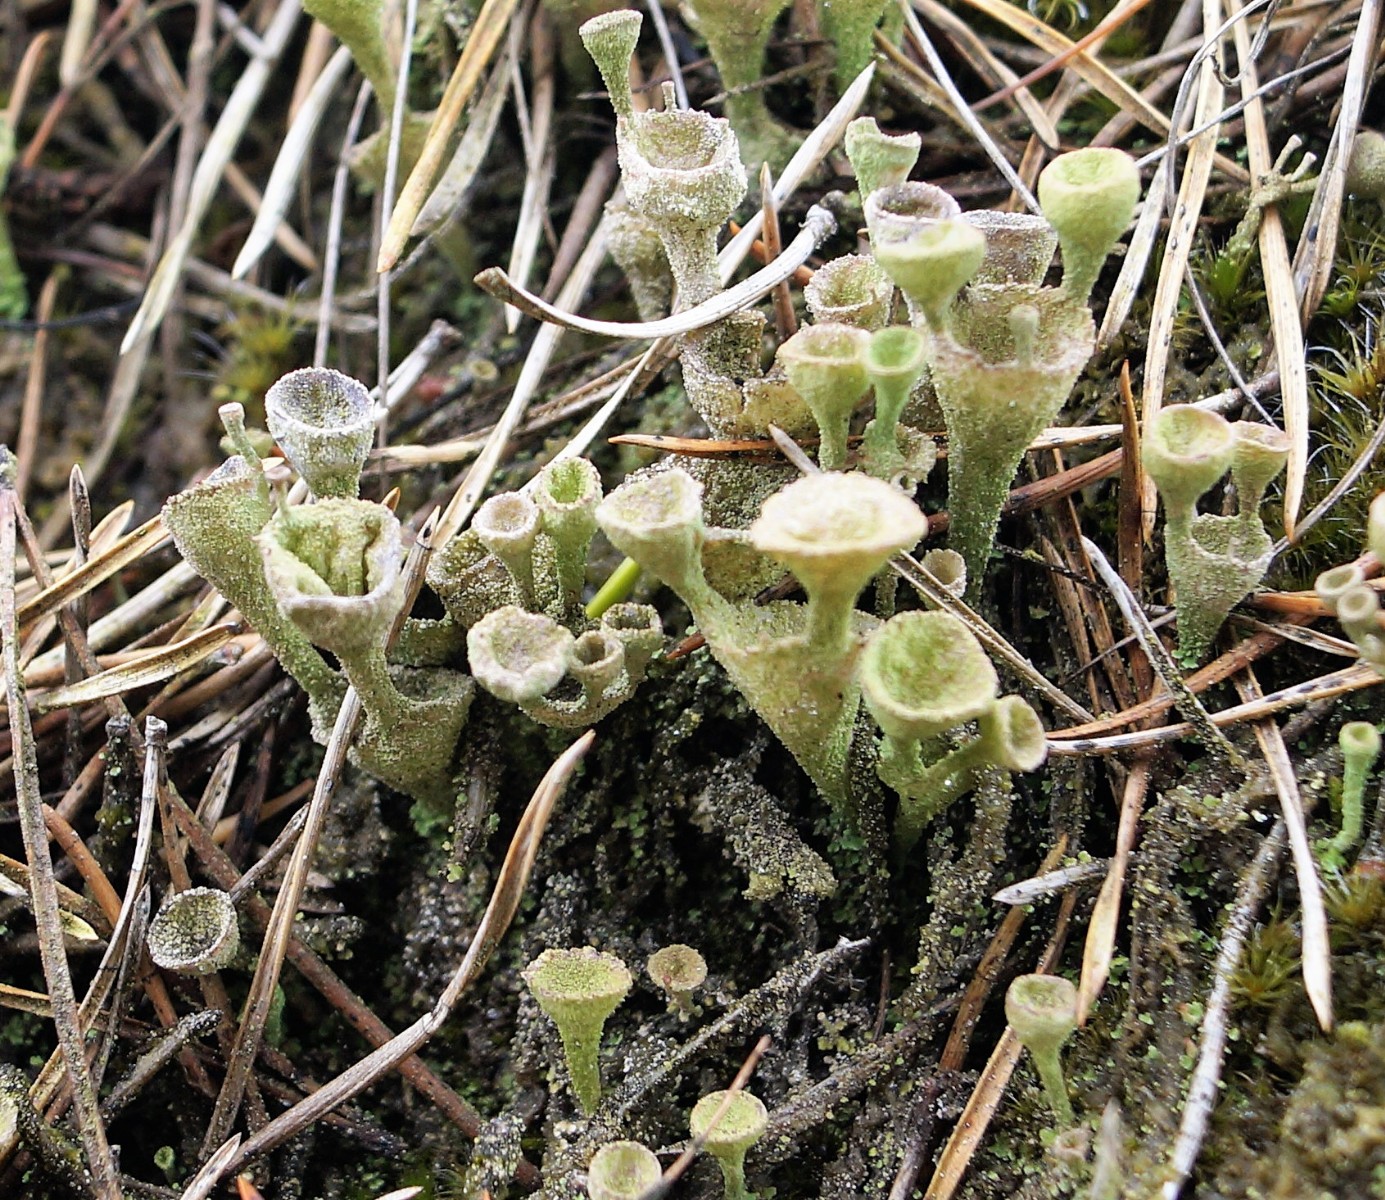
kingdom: Fungi
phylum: Ascomycota
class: Lecanoromycetes
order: Lecanorales
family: Cladoniaceae
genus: Cladonia
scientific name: Cladonia
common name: brungrøn bægerlav
